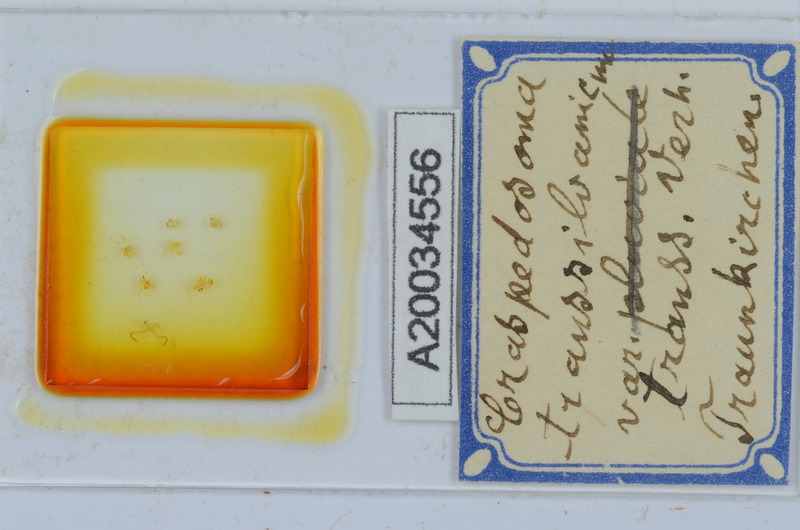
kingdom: Animalia
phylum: Arthropoda
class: Diplopoda
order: Chordeumatida
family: Craspedosomatidae
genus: Craspedosoma
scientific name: Craspedosoma rawlinsii
